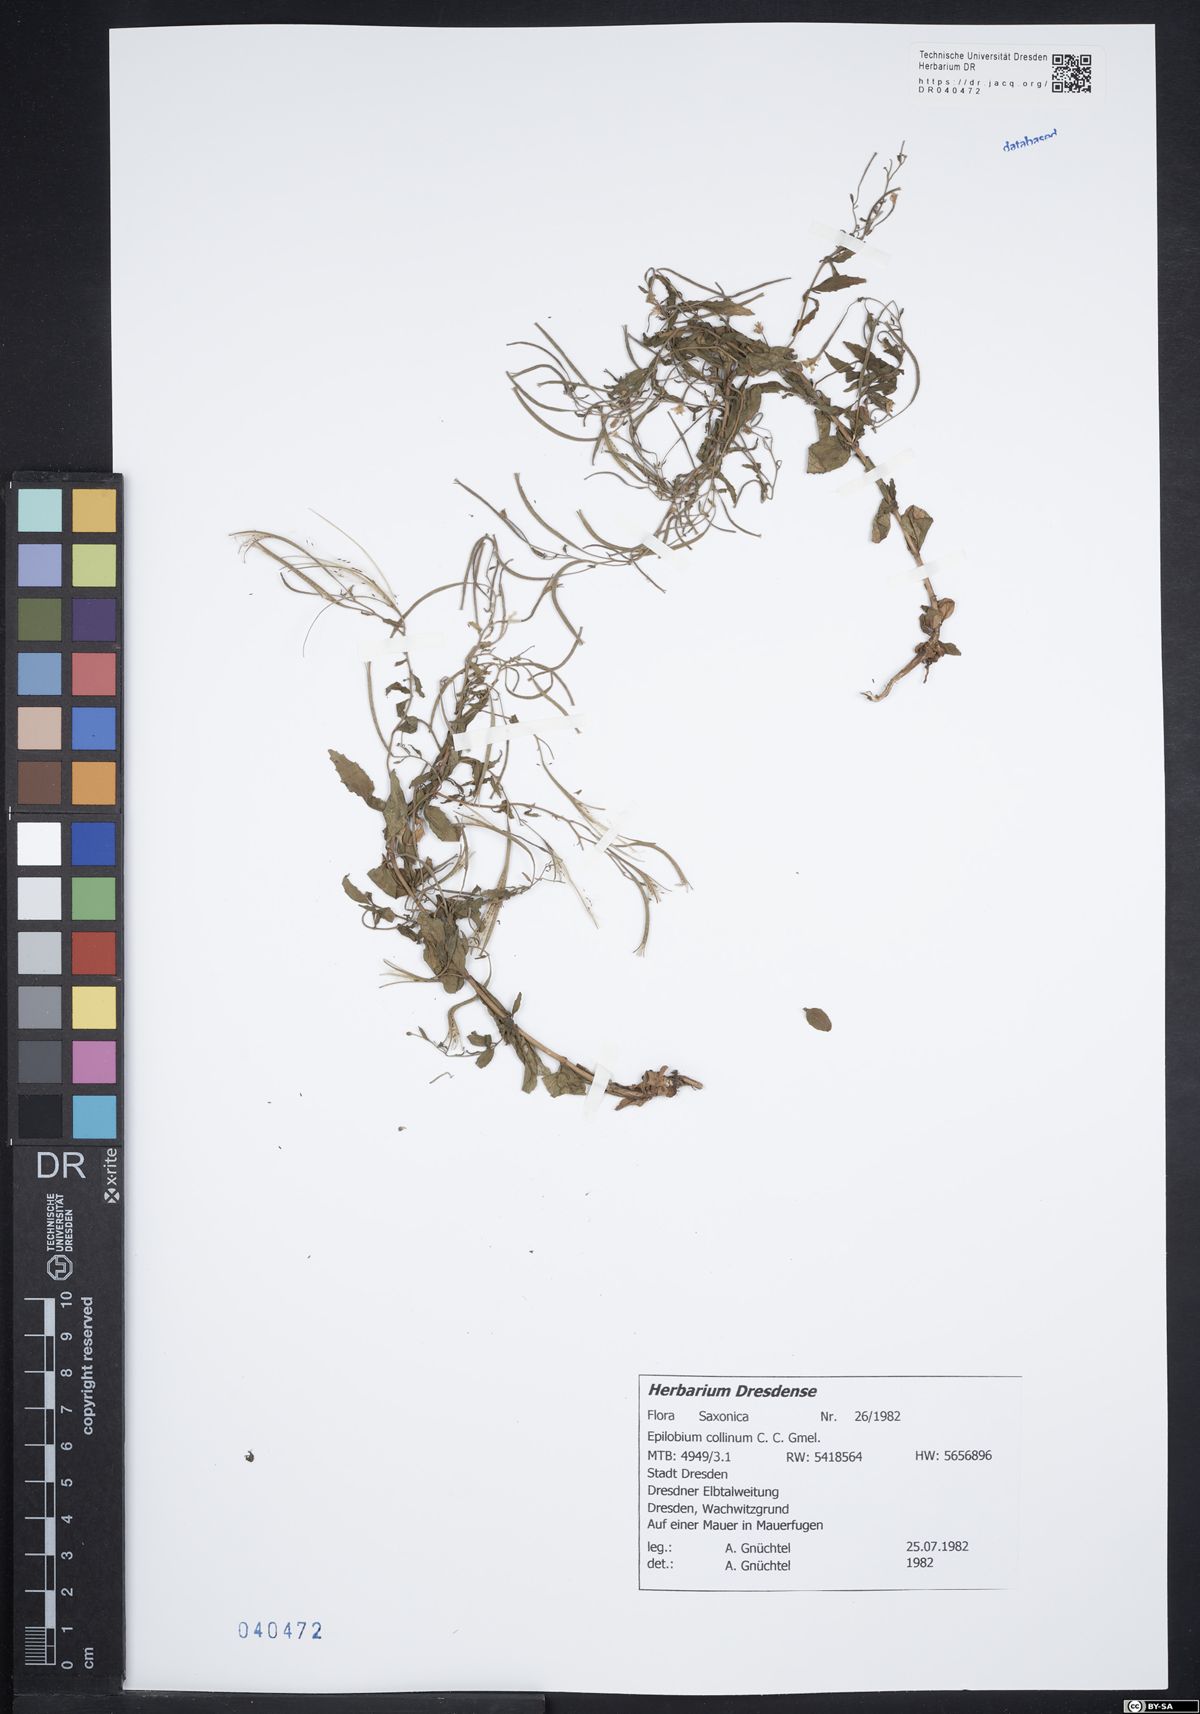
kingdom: Plantae
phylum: Tracheophyta
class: Magnoliopsida
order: Myrtales
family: Onagraceae
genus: Epilobium
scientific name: Epilobium collinum
